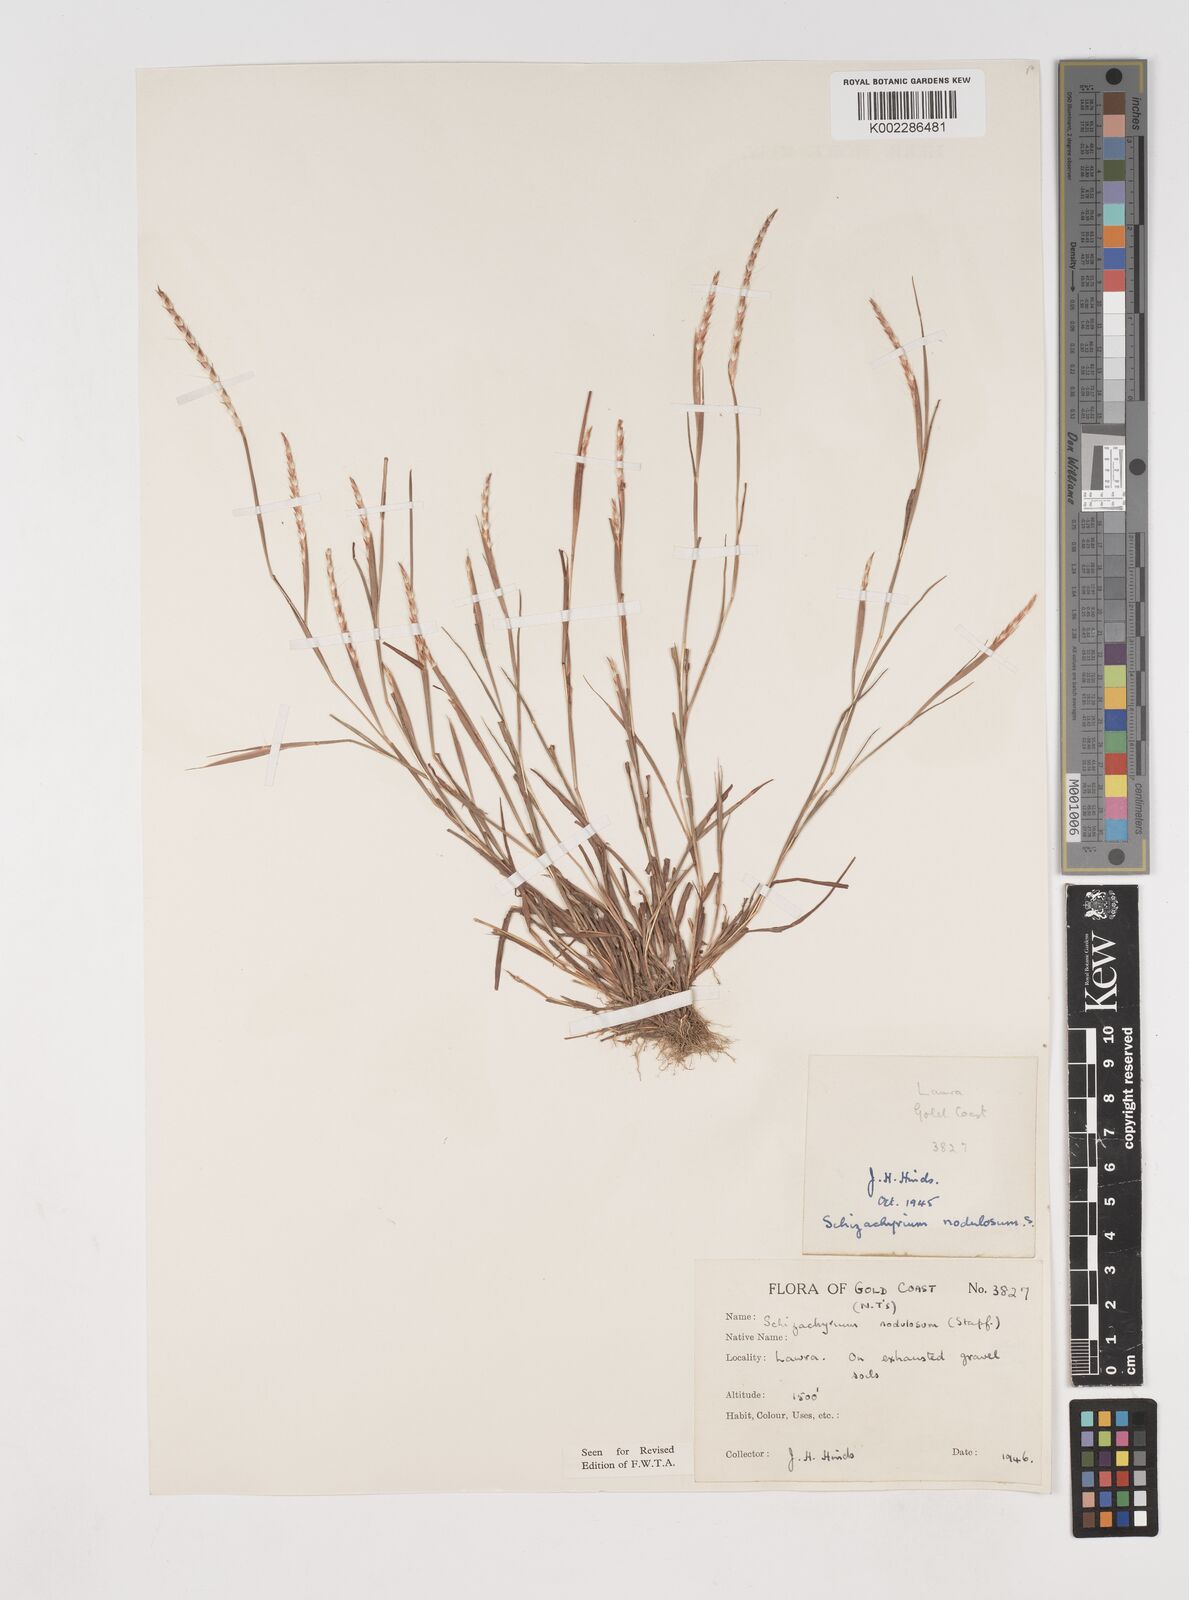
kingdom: Plantae
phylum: Tracheophyta
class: Liliopsida
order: Poales
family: Poaceae
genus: Schizachyrium
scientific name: Schizachyrium nodulosum
